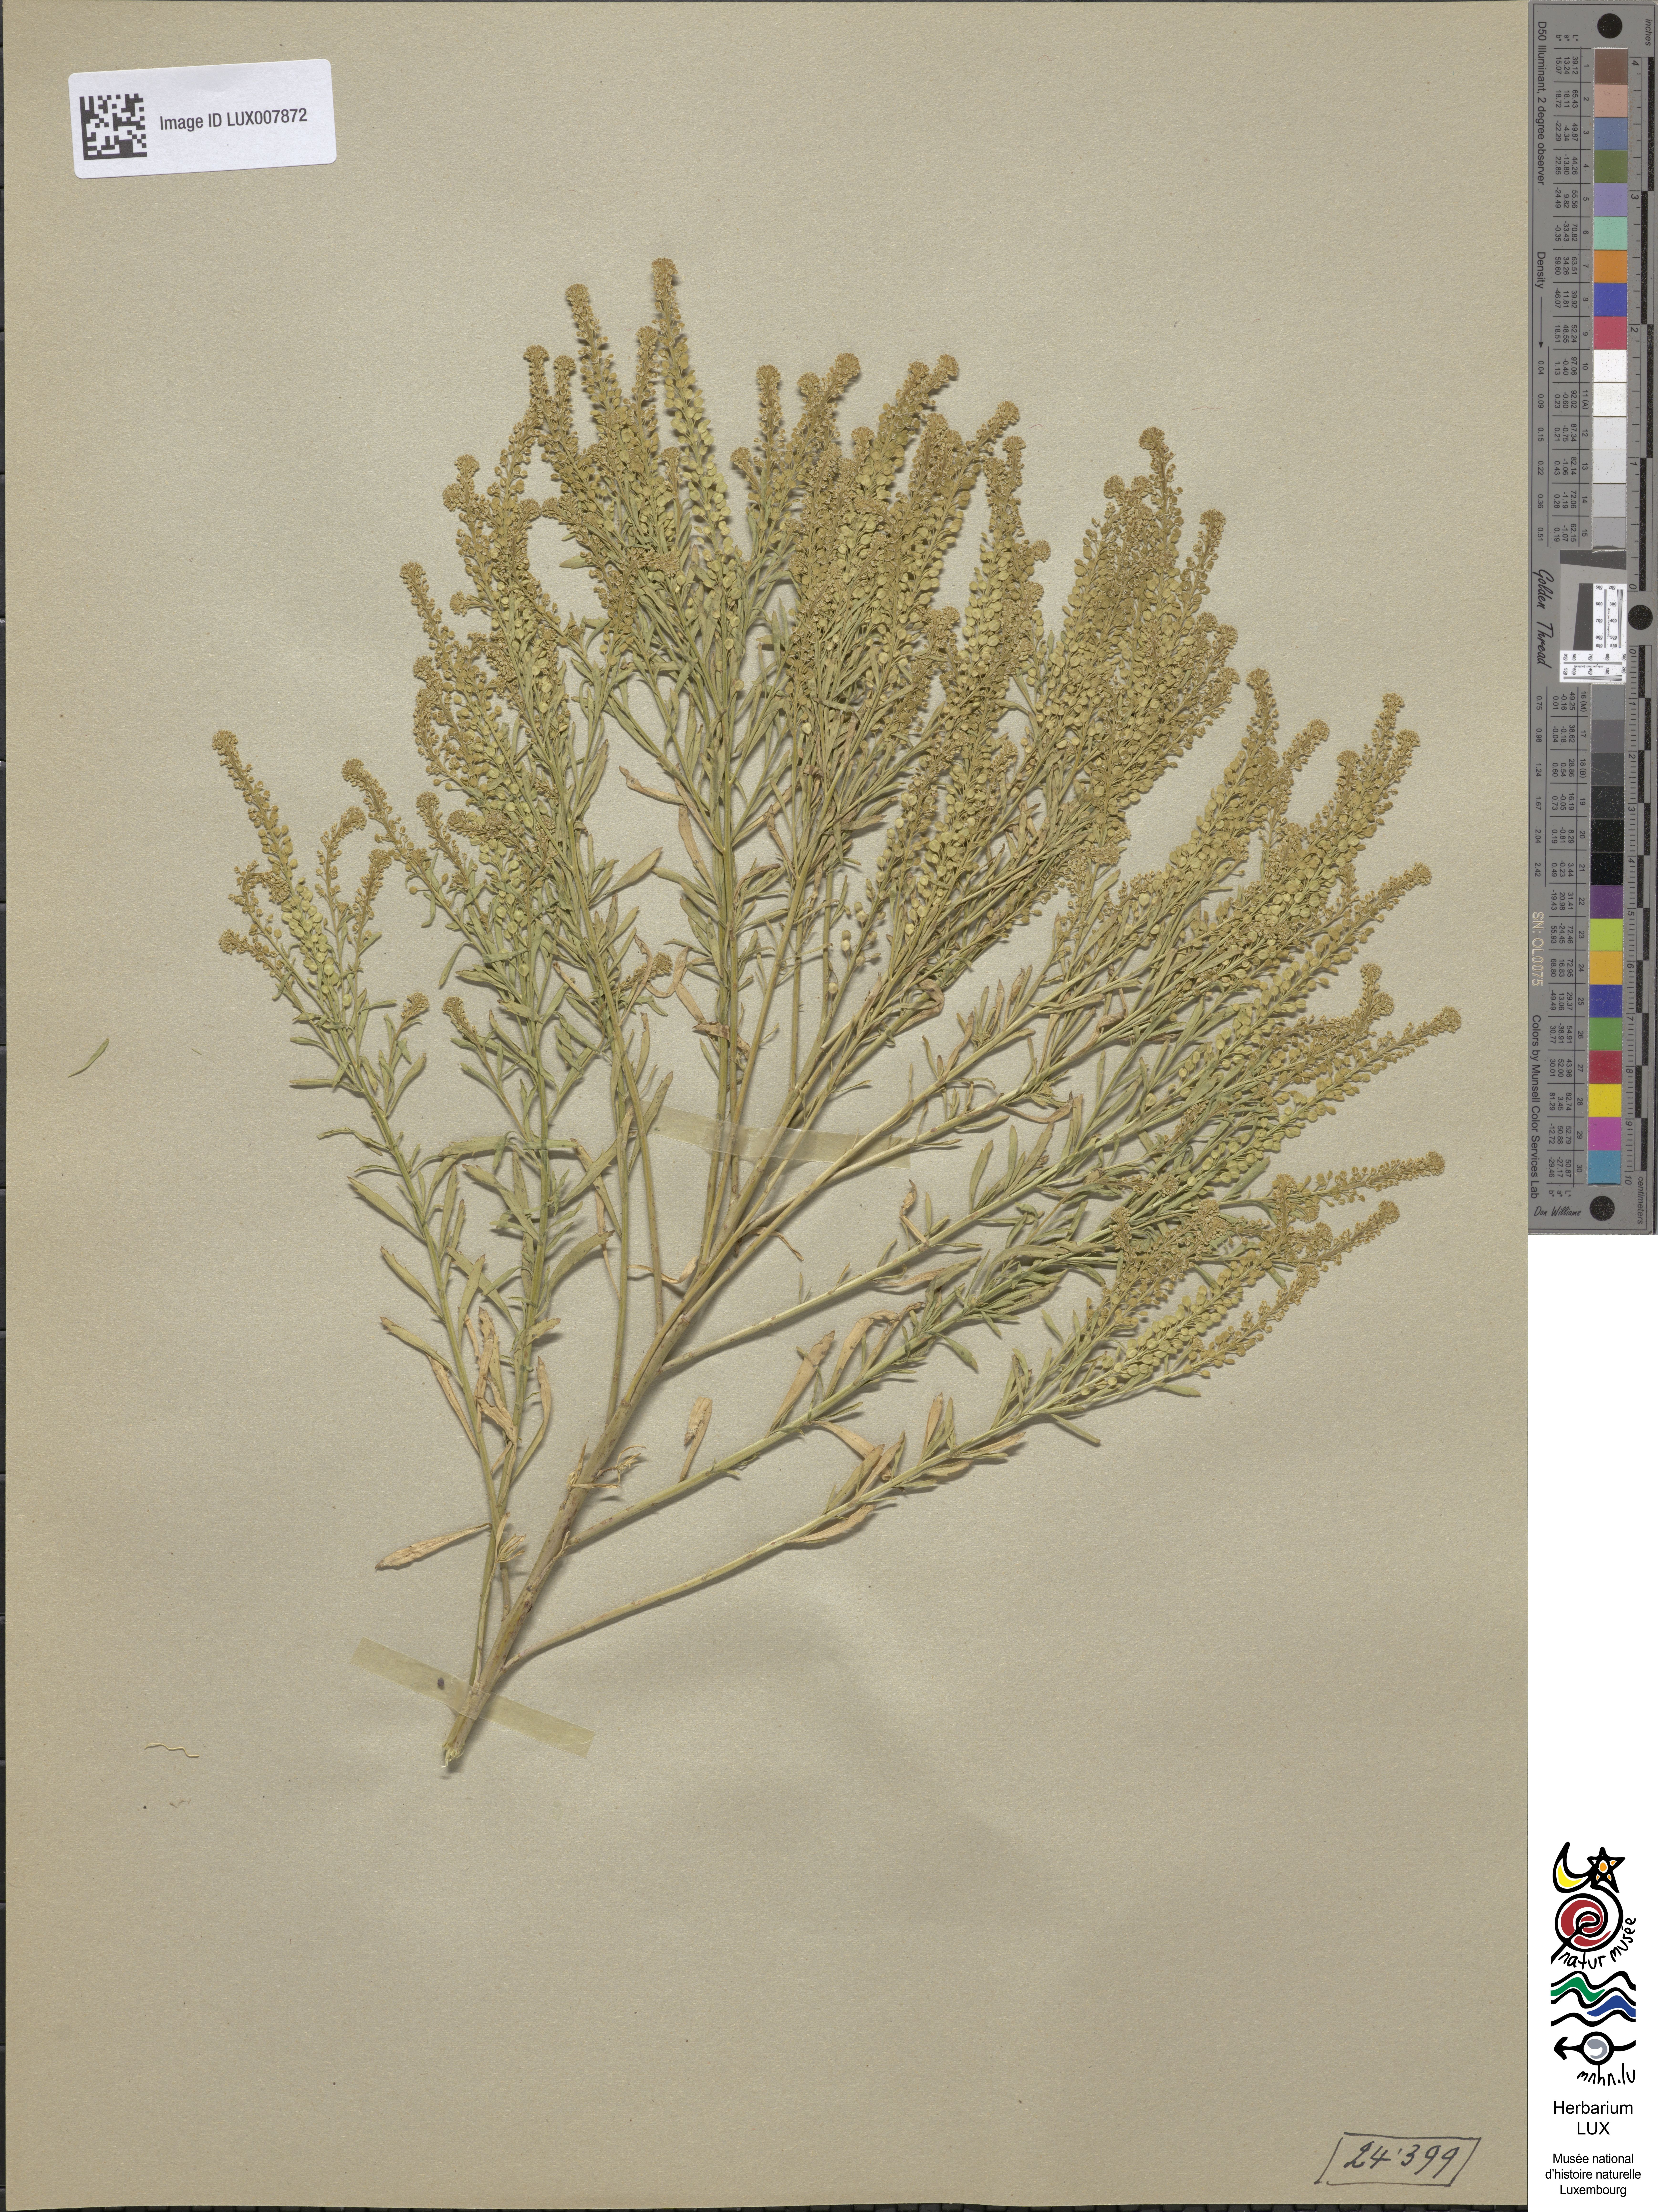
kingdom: Plantae
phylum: Tracheophyta
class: Magnoliopsida
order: Brassicales
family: Brassicaceae
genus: Lepidium
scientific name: Lepidium densiflorum
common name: Miner's pepperwort
